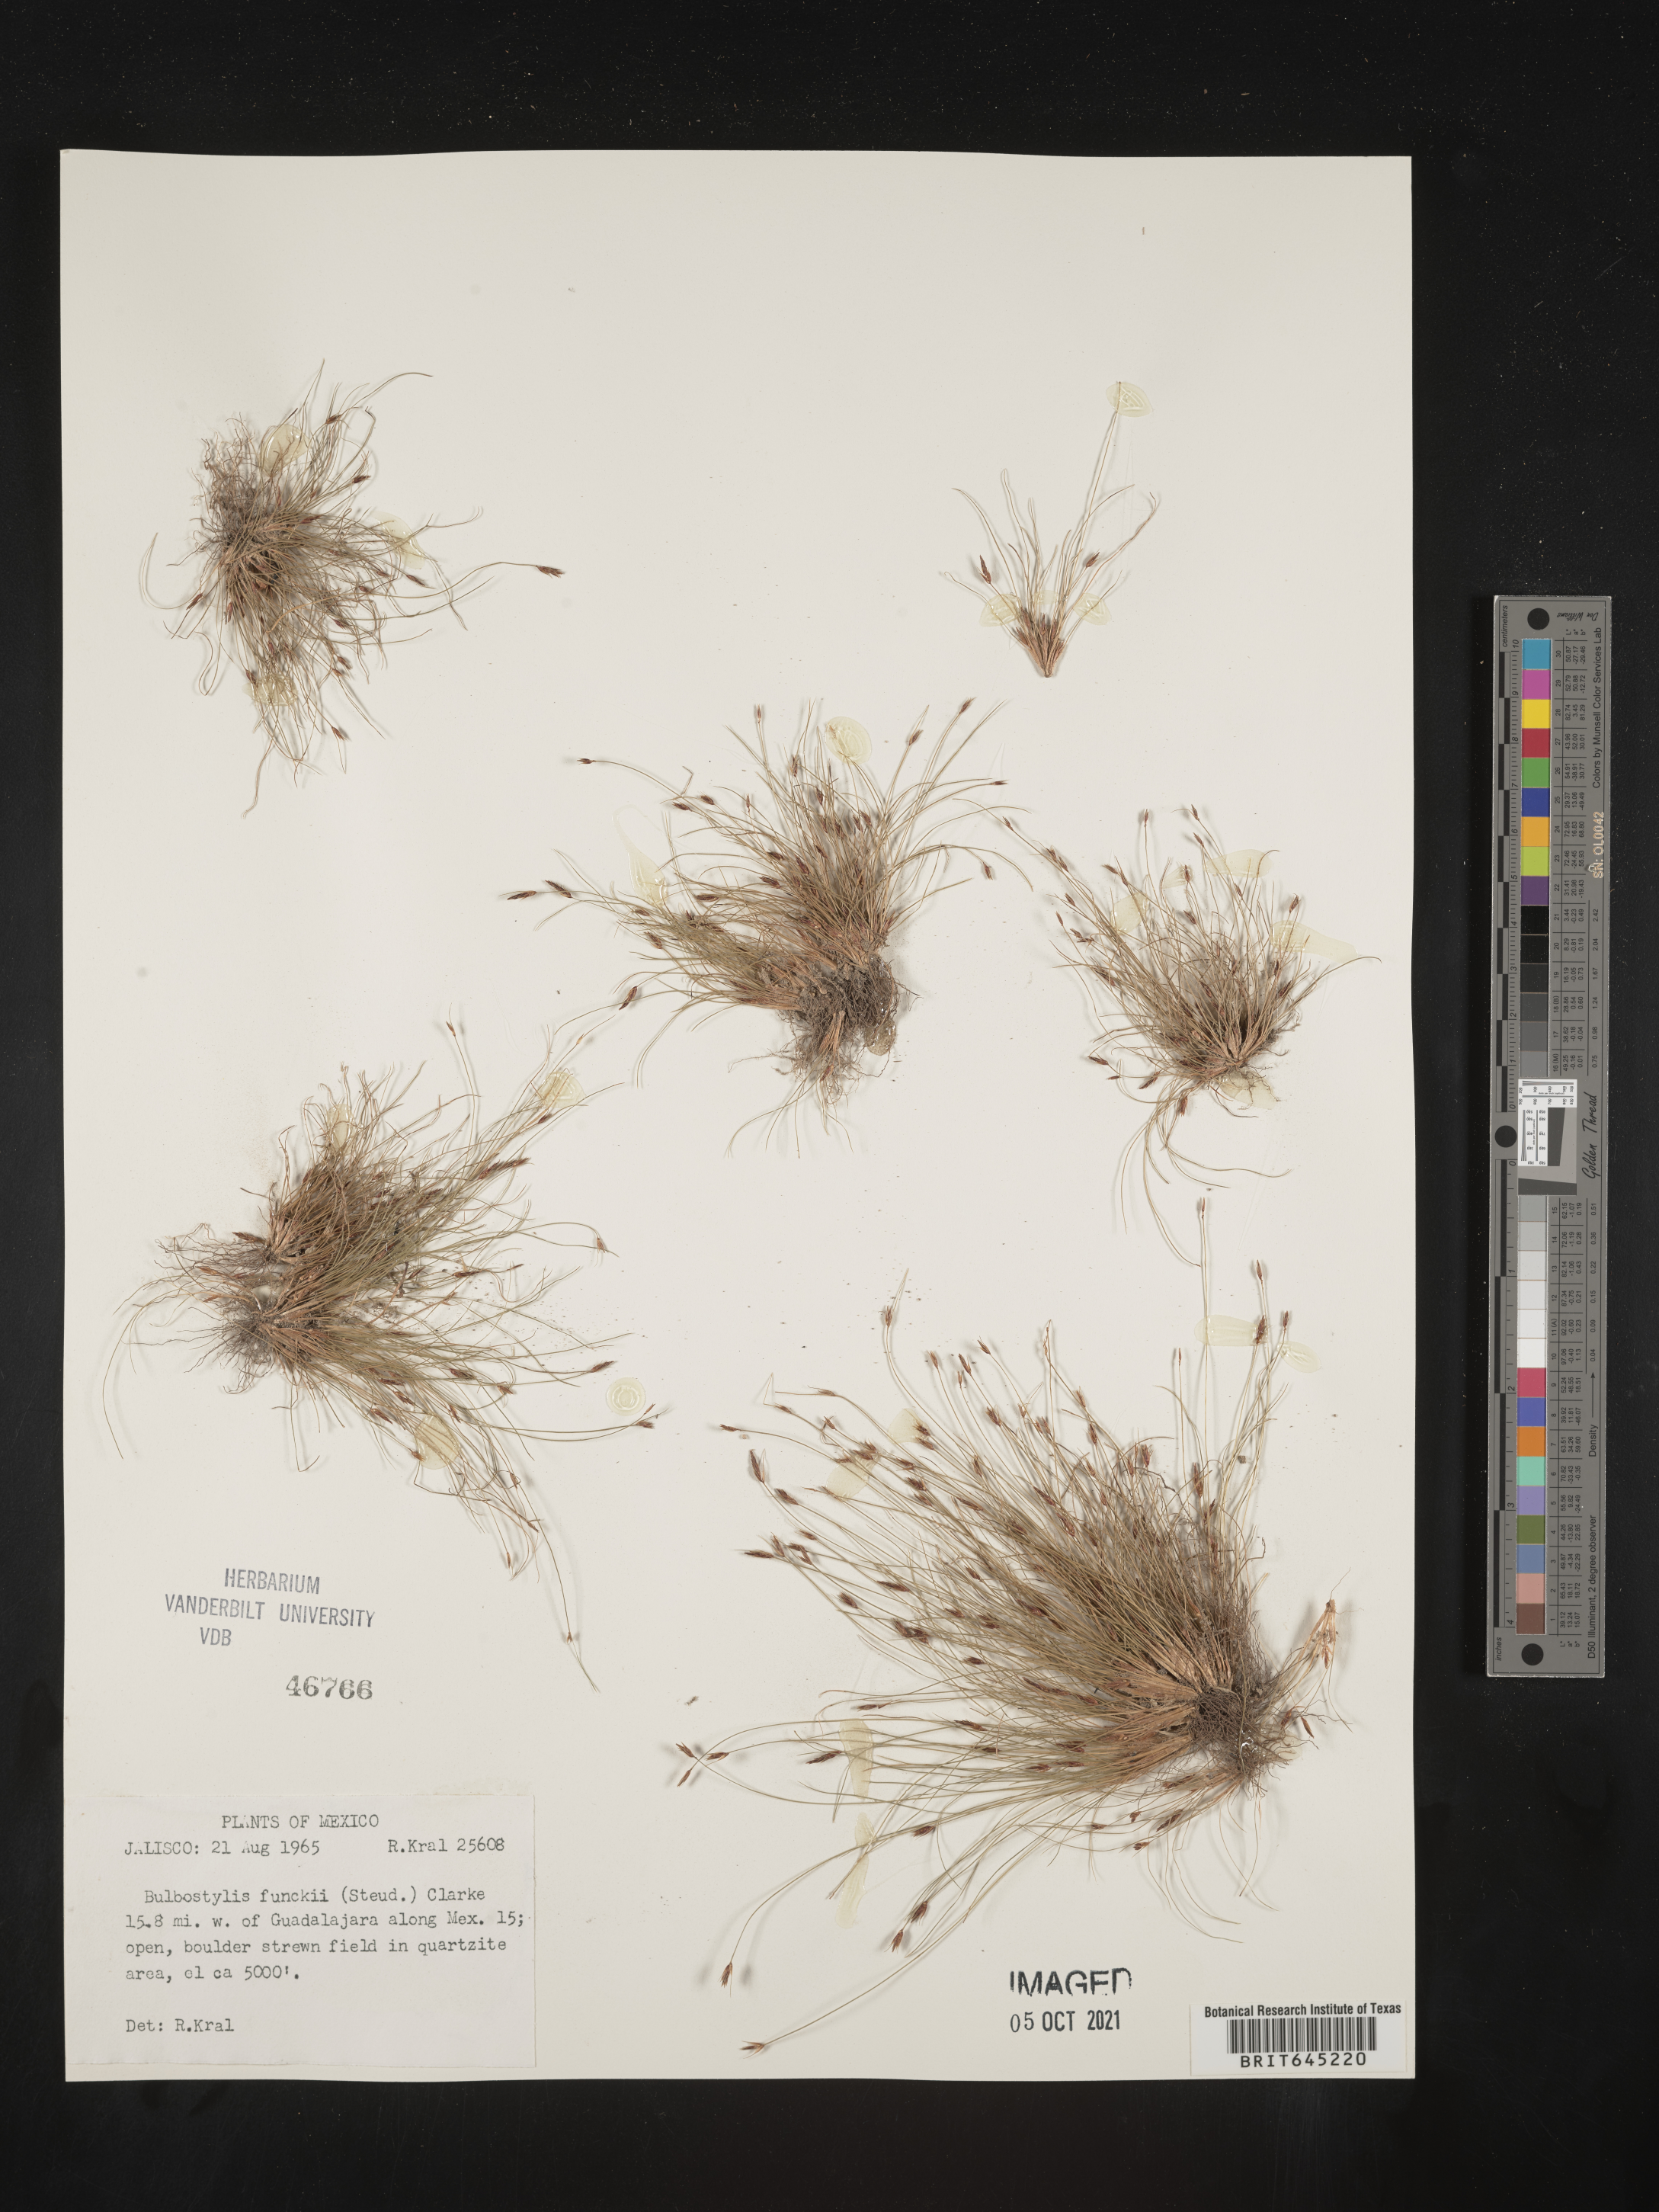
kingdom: Plantae
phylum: Tracheophyta
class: Liliopsida
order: Poales
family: Cyperaceae
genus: Bulbostylis
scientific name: Bulbostylis funckii
